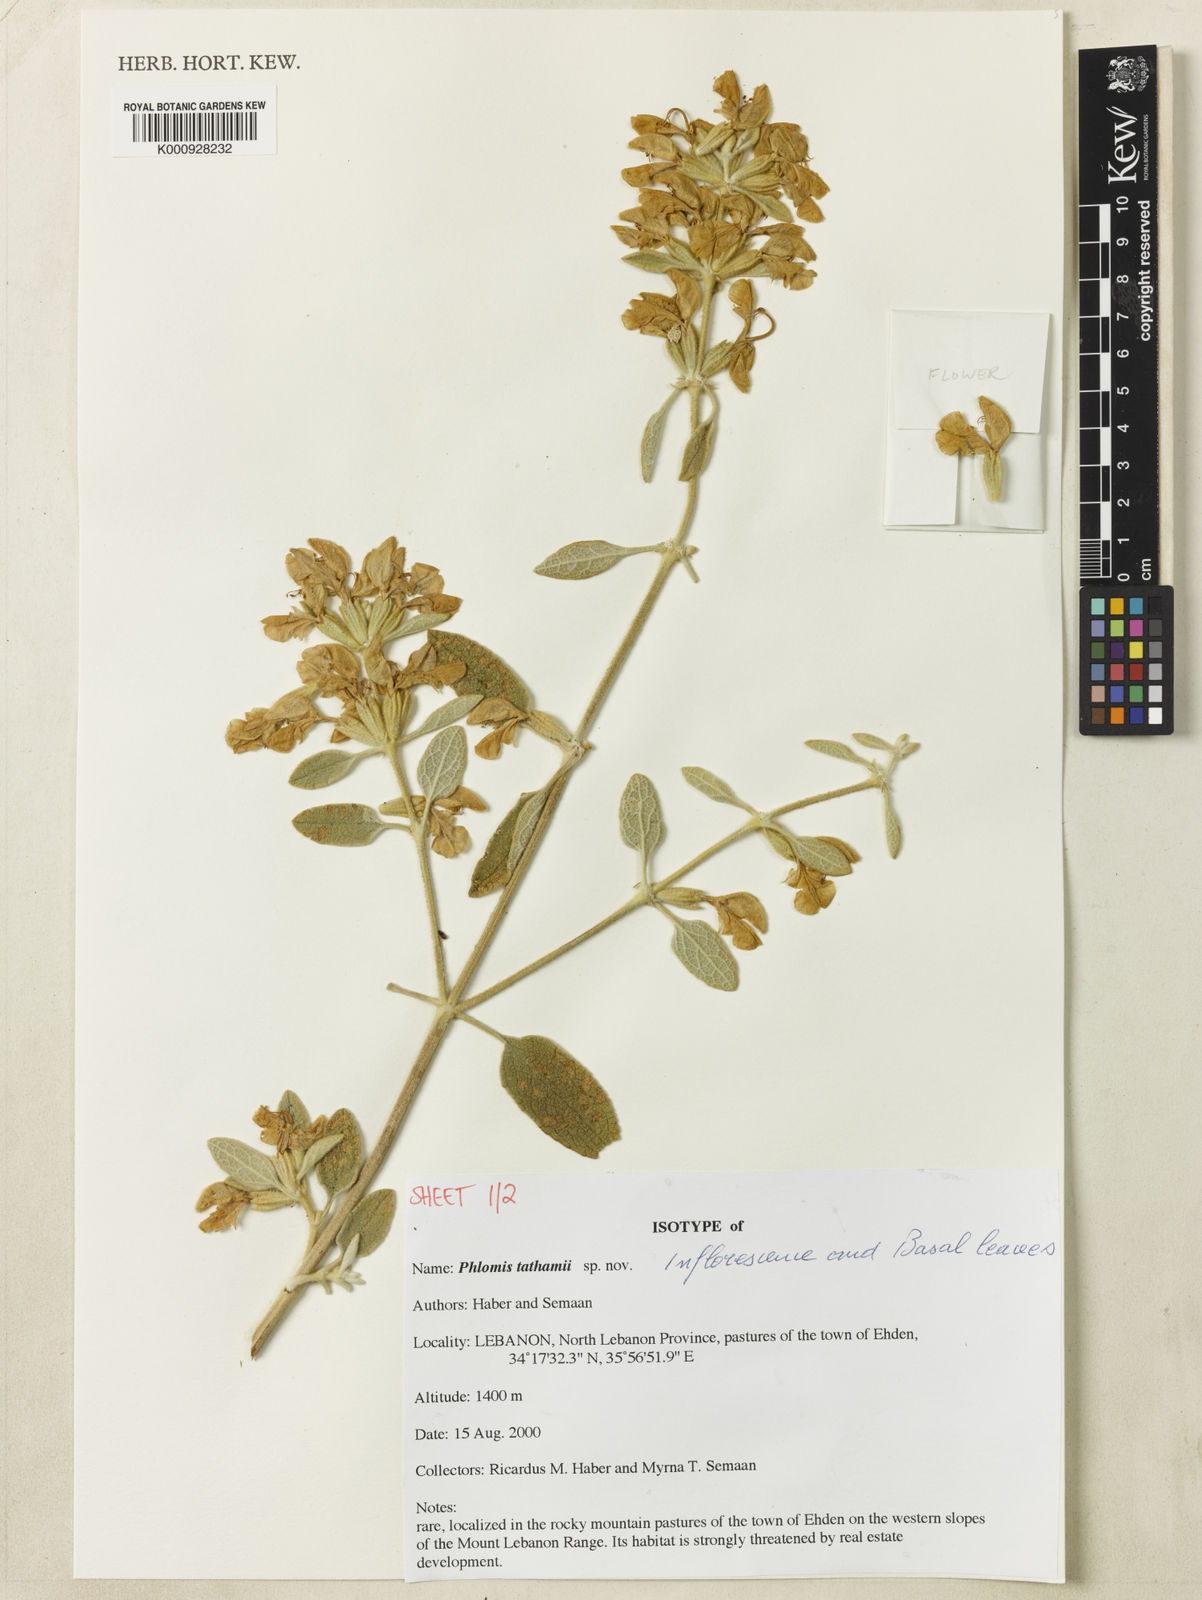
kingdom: Plantae
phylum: Tracheophyta
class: Magnoliopsida
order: Lamiales
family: Lamiaceae
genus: Phlomis
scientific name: Phlomis
